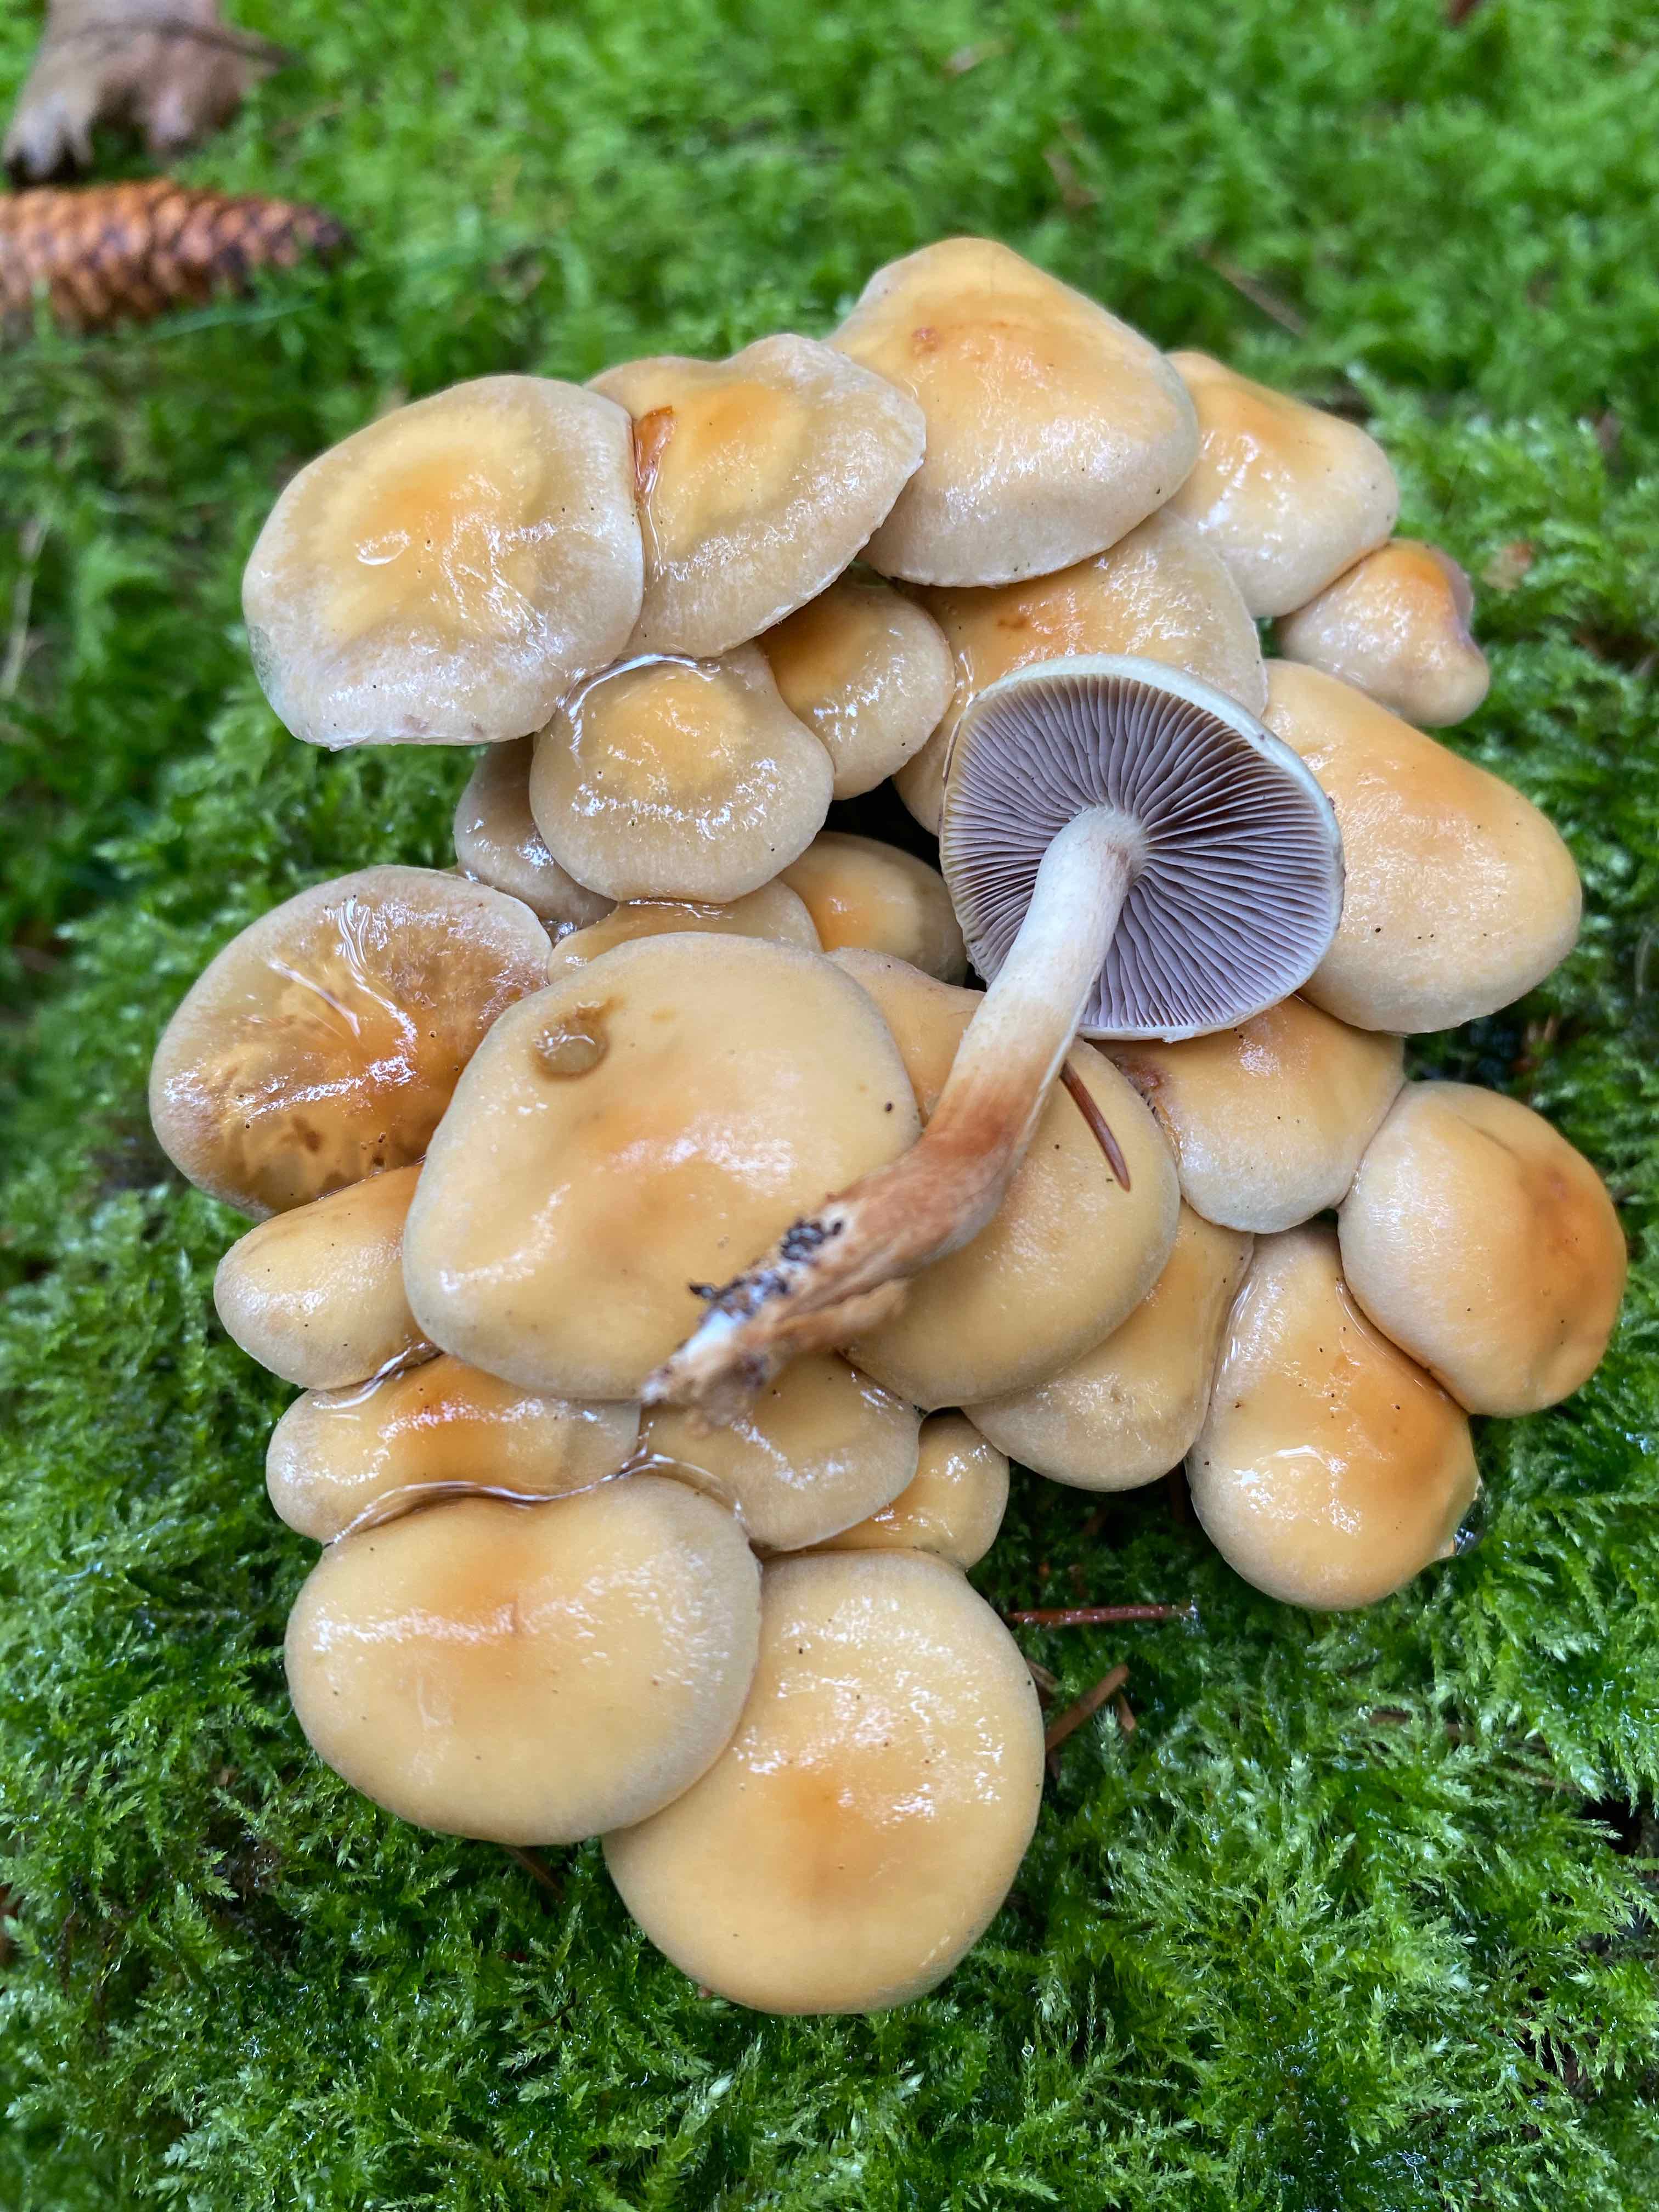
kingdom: Fungi
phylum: Basidiomycota
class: Agaricomycetes
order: Agaricales
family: Strophariaceae
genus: Hypholoma
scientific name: Hypholoma capnoides
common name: gran-svovlhat
